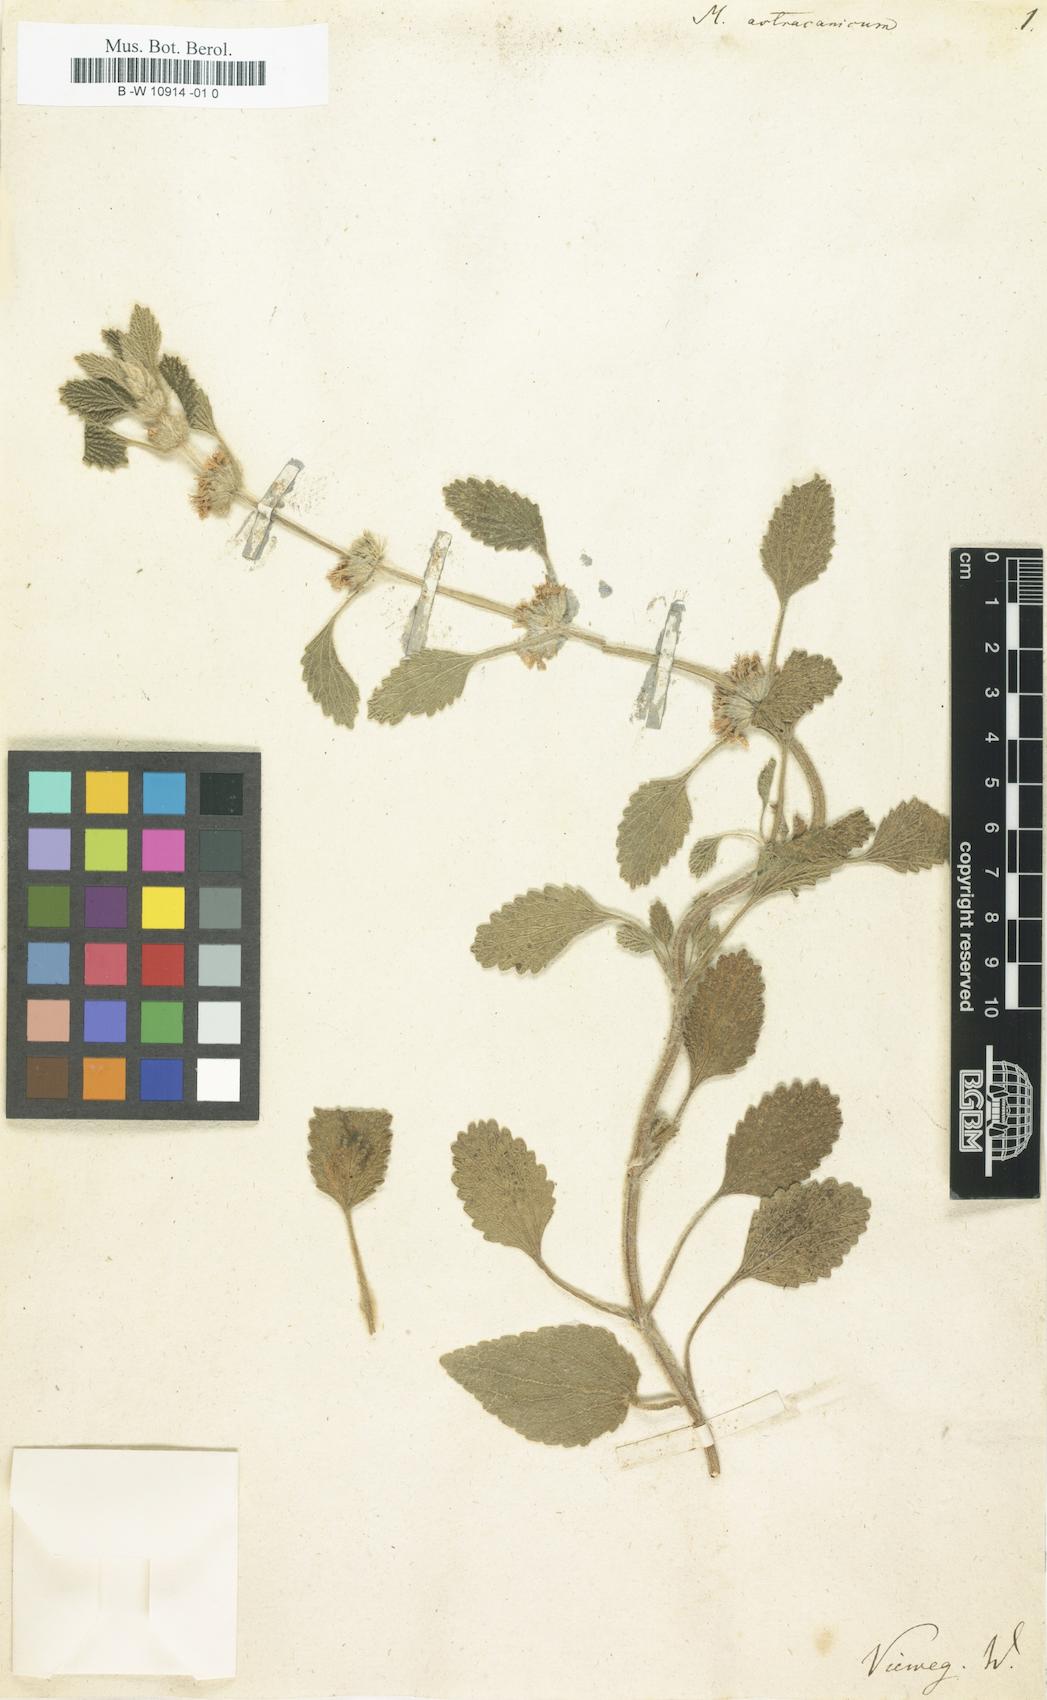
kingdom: Plantae
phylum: Tracheophyta
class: Magnoliopsida
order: Lamiales
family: Lamiaceae
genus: Marrubium
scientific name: Marrubium astracanicum
